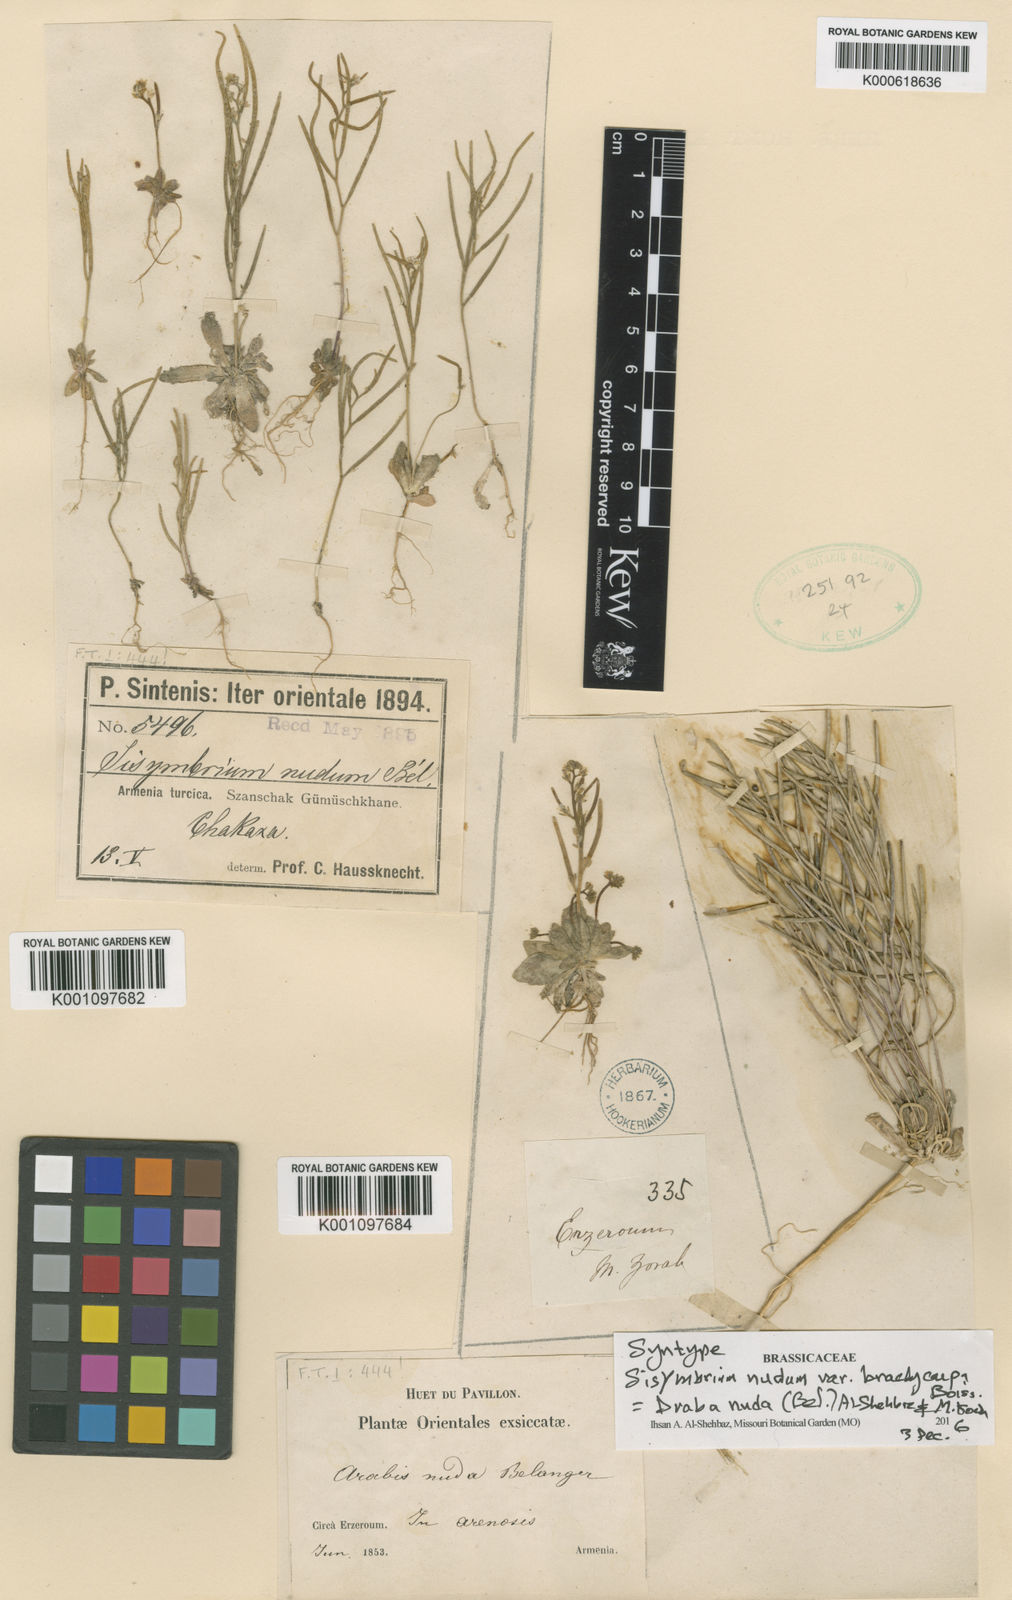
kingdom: Plantae
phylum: Tracheophyta
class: Magnoliopsida
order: Brassicales
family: Brassicaceae
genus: Draba
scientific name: Draba nuda
